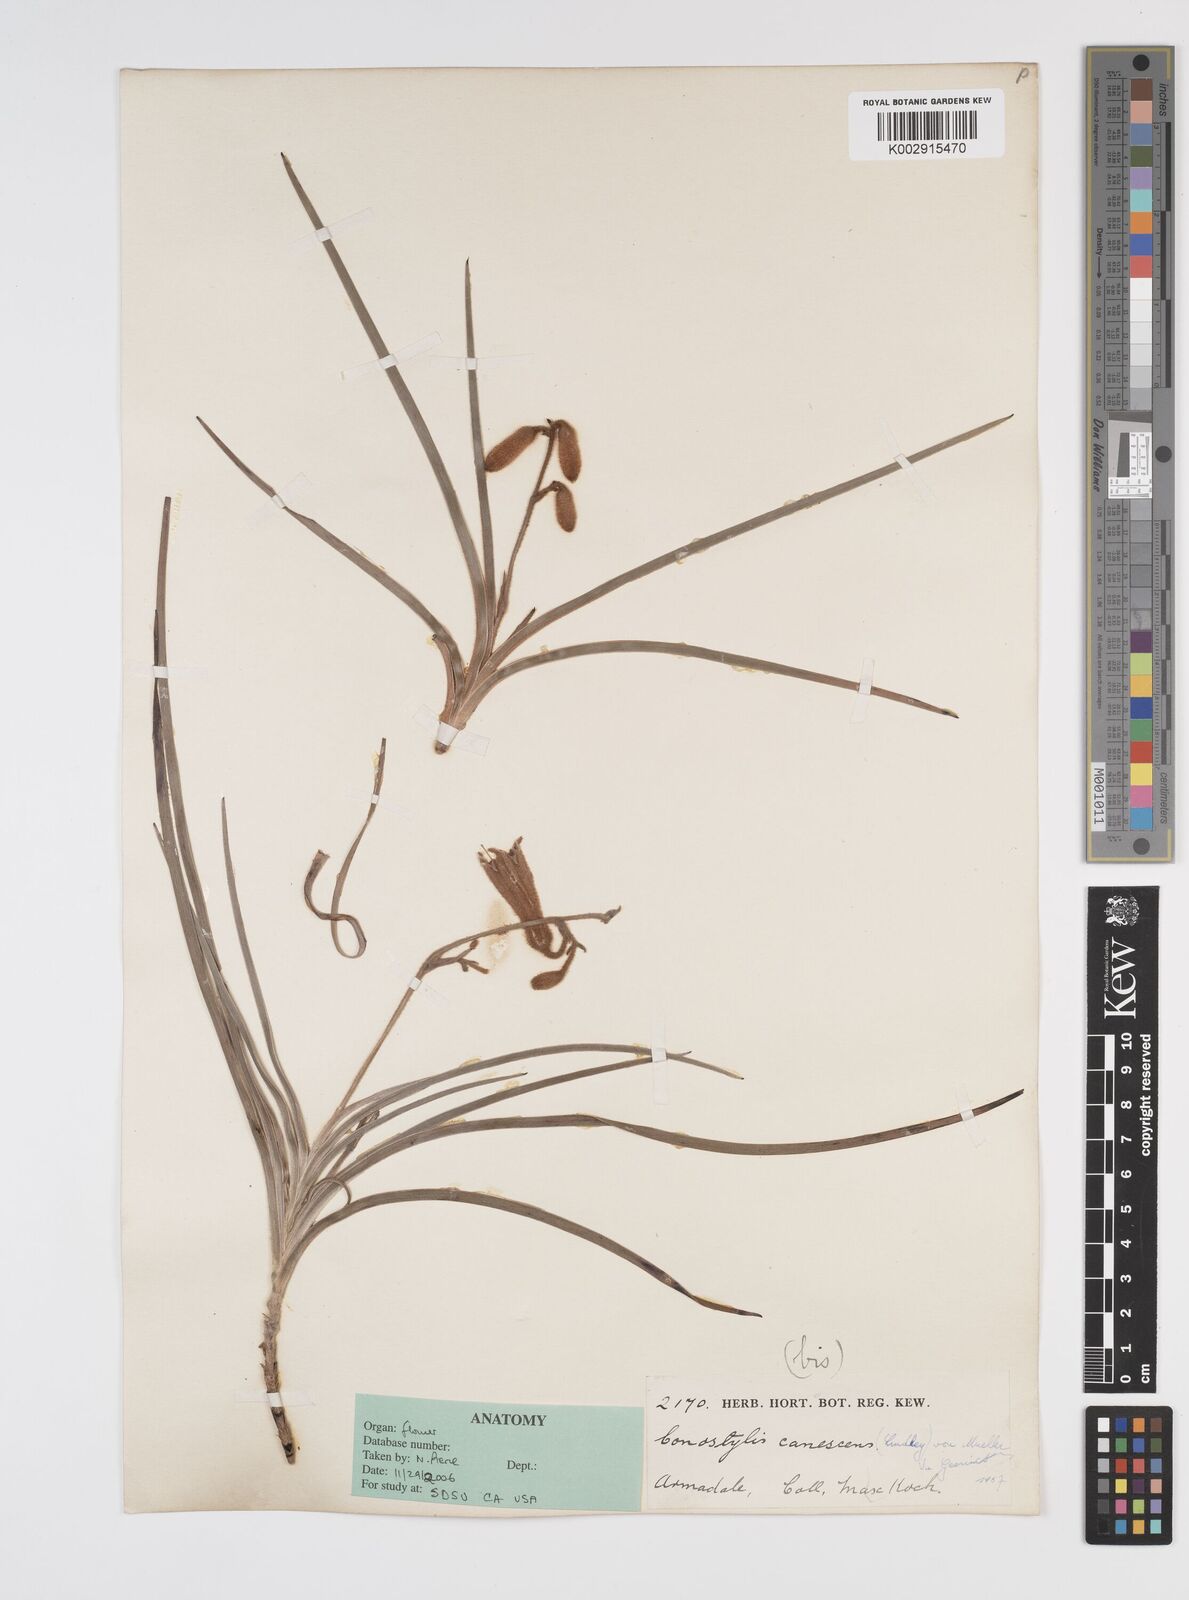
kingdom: Plantae
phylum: Tracheophyta
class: Liliopsida
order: Commelinales
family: Haemodoraceae
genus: Blancoa
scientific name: Blancoa canescens
